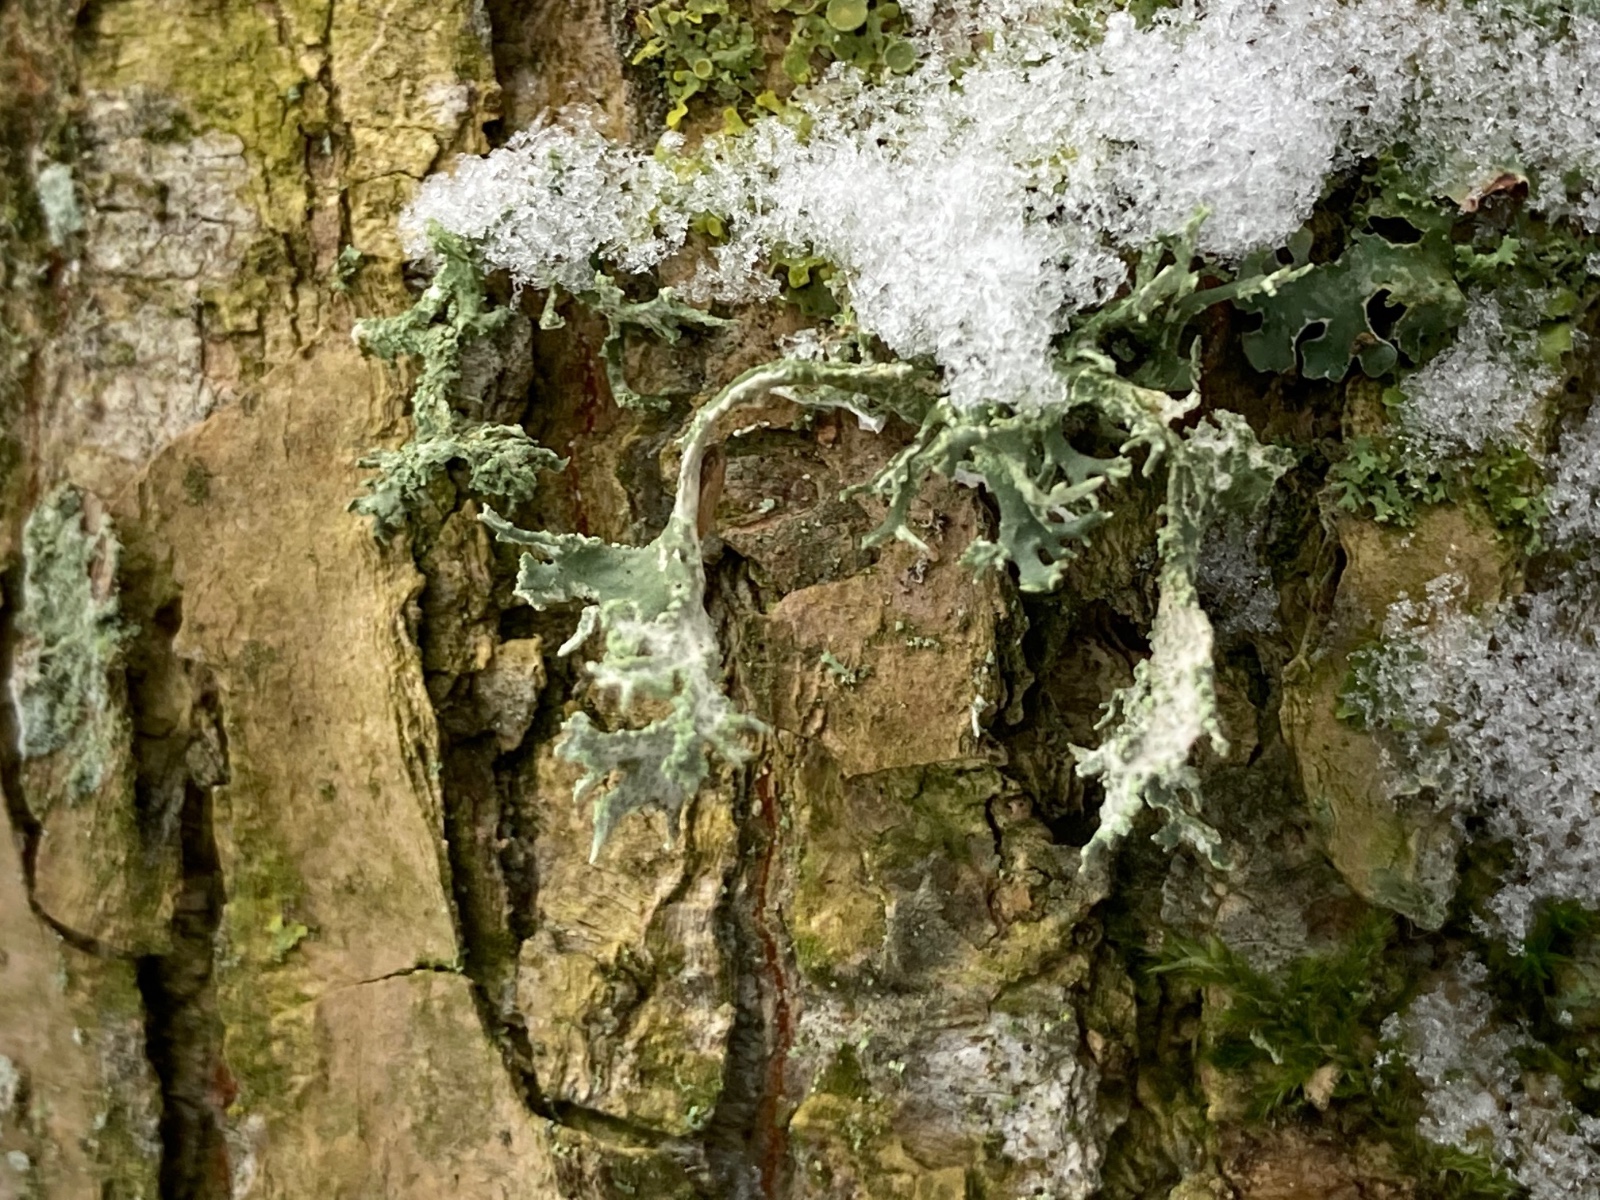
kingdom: Fungi
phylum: Ascomycota
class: Lecanoromycetes
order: Lecanorales
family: Parmeliaceae
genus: Evernia
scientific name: Evernia prunastri
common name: almindelig slåenlav
